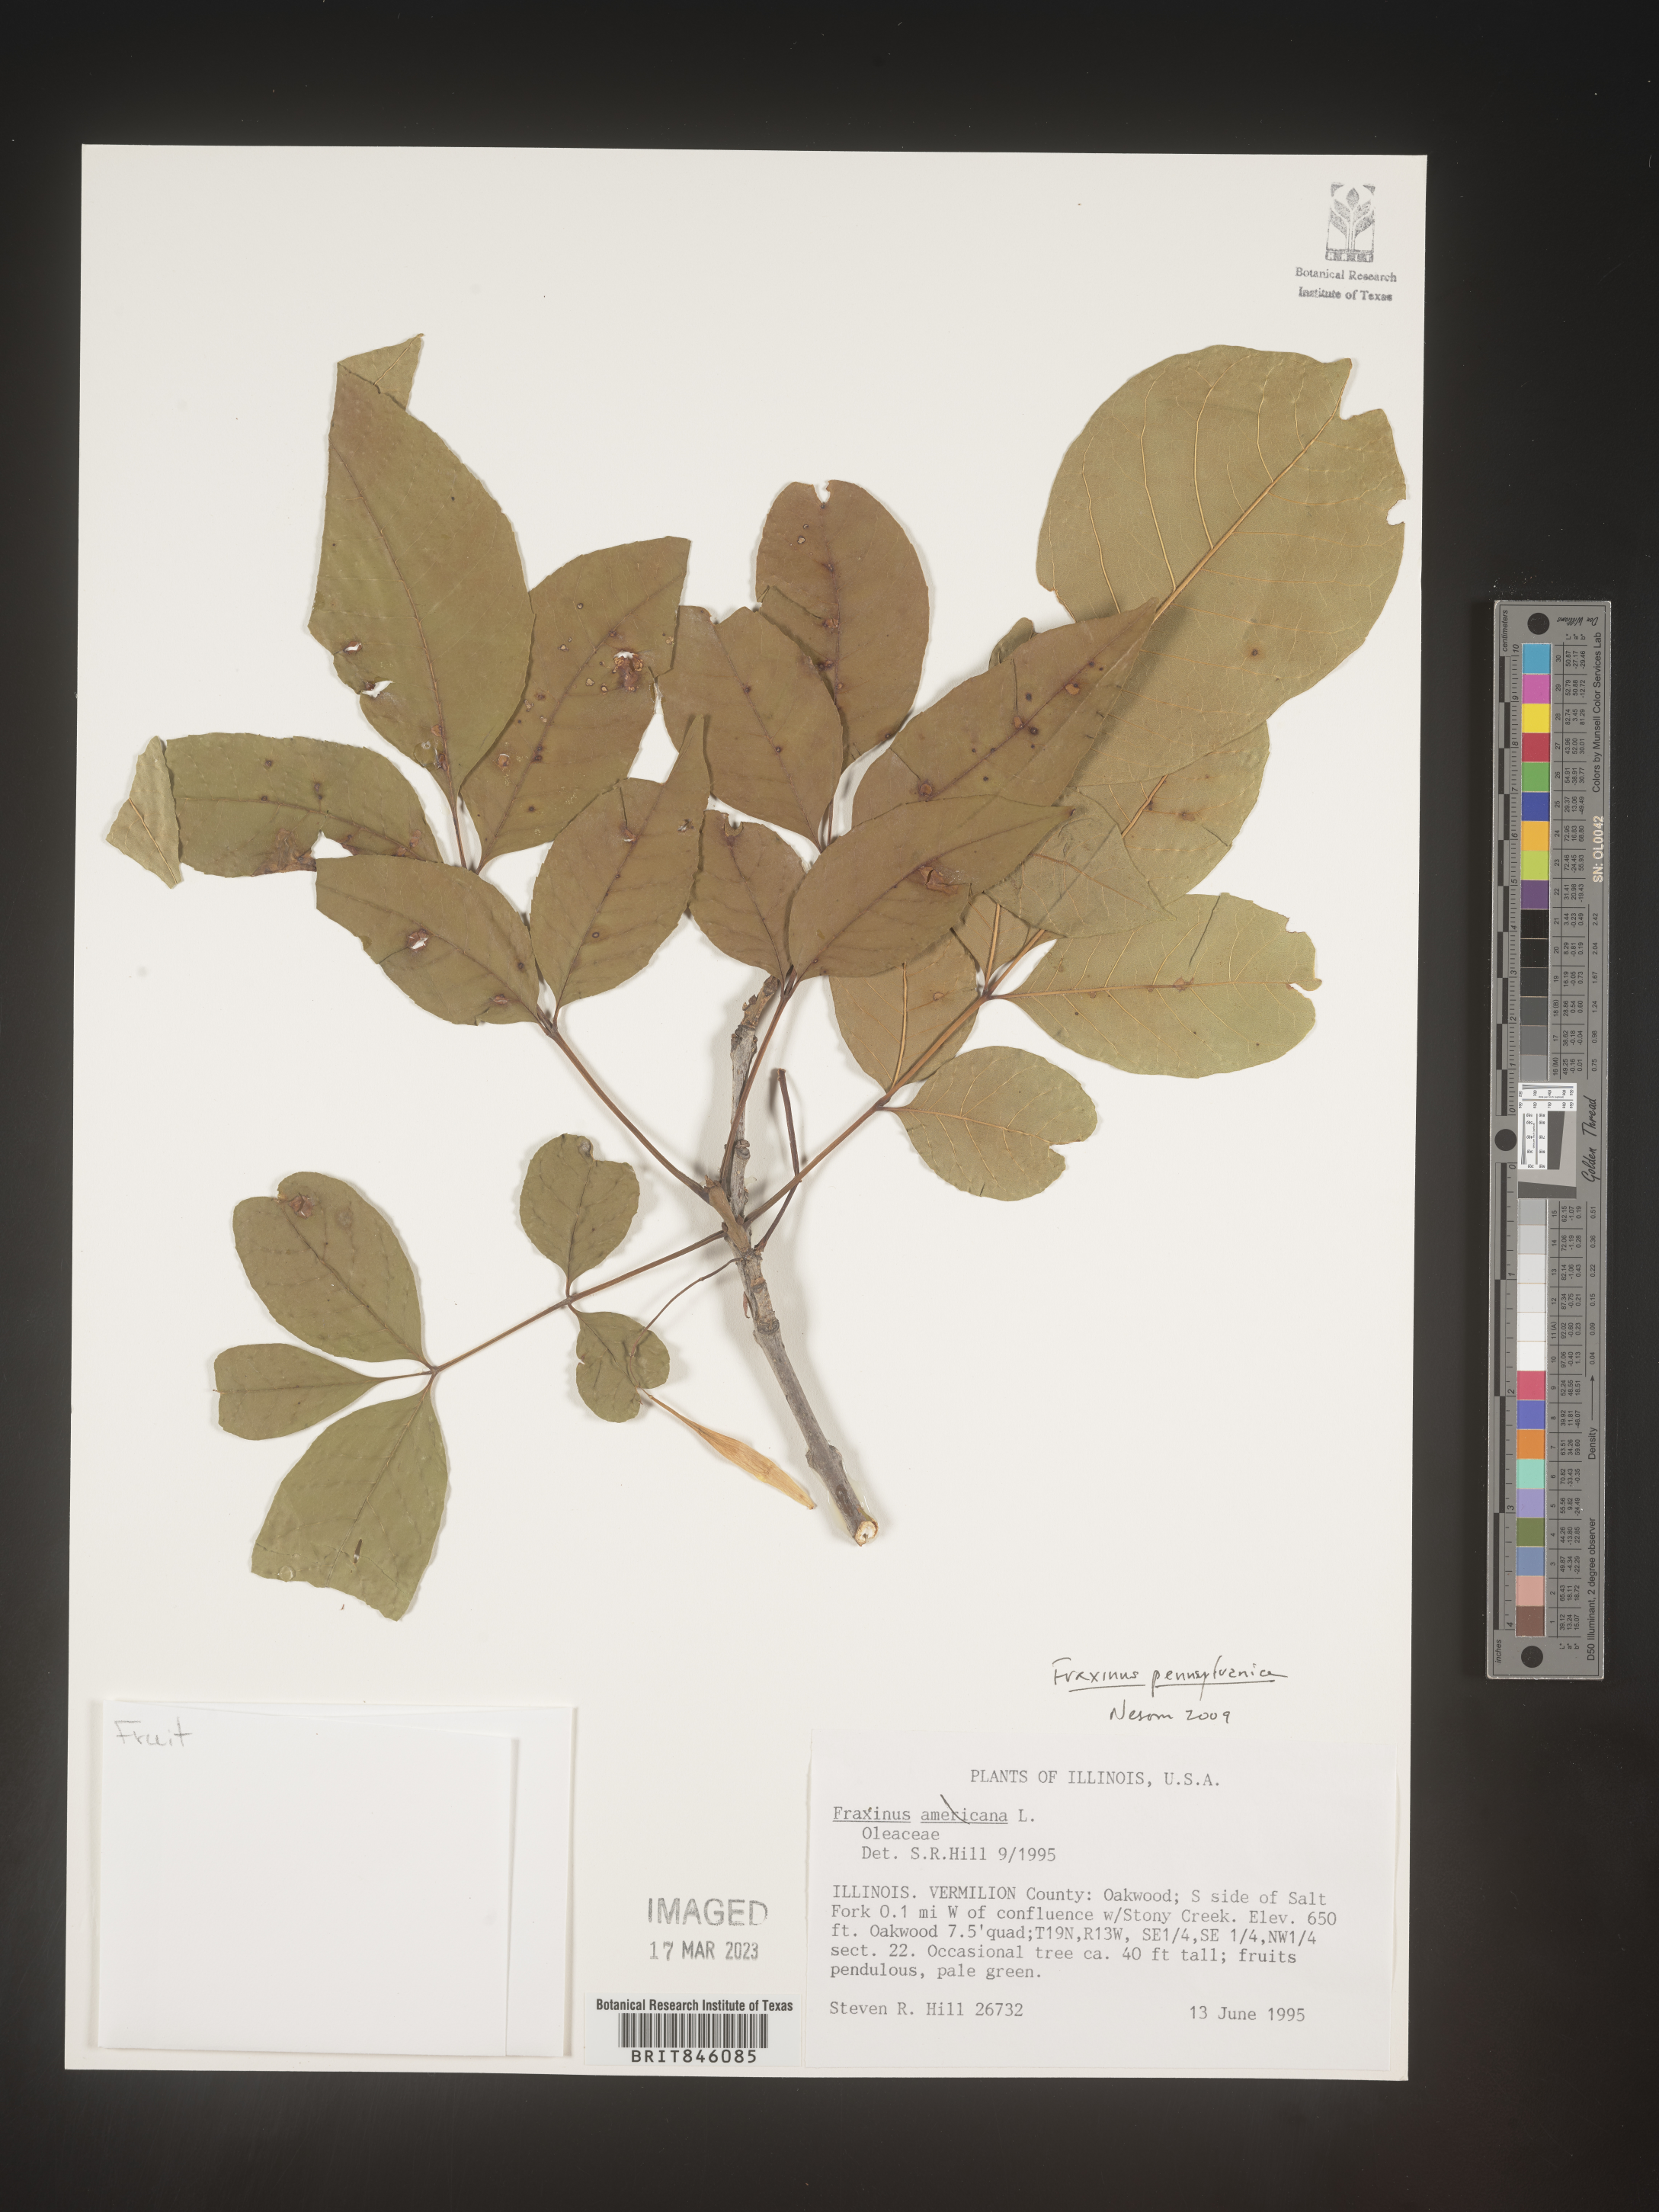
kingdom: Plantae
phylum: Tracheophyta
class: Magnoliopsida
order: Lamiales
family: Oleaceae
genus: Fraxinus
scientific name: Fraxinus pennsylvanica
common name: Green ash
